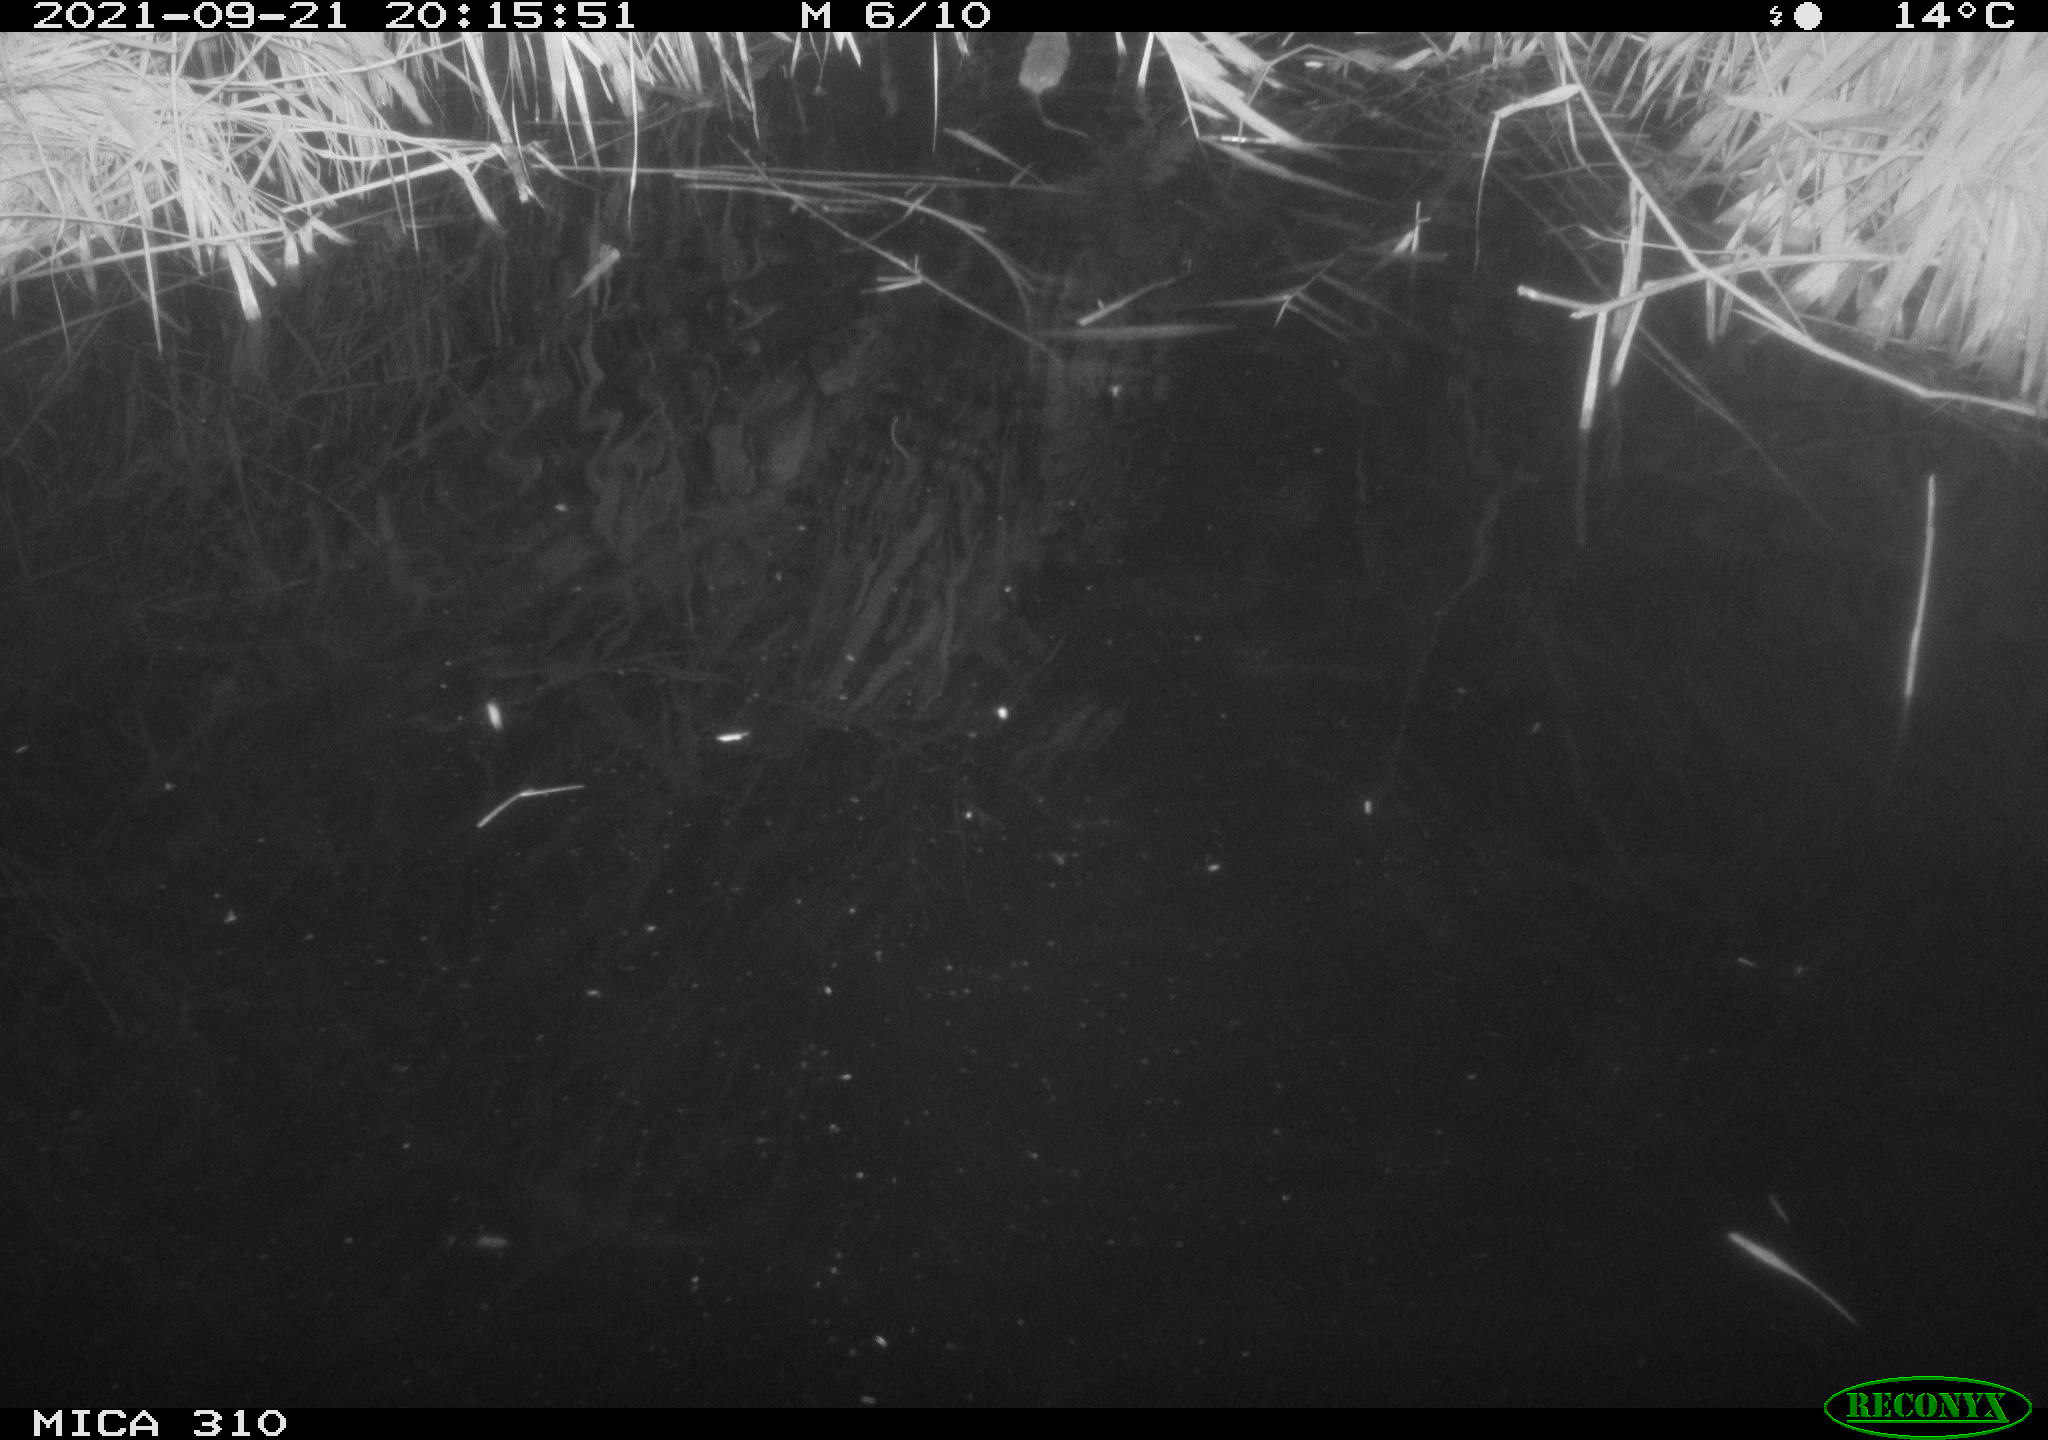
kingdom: Animalia
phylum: Chordata
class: Mammalia
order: Rodentia
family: Muridae
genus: Rattus
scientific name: Rattus norvegicus
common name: Brown rat
